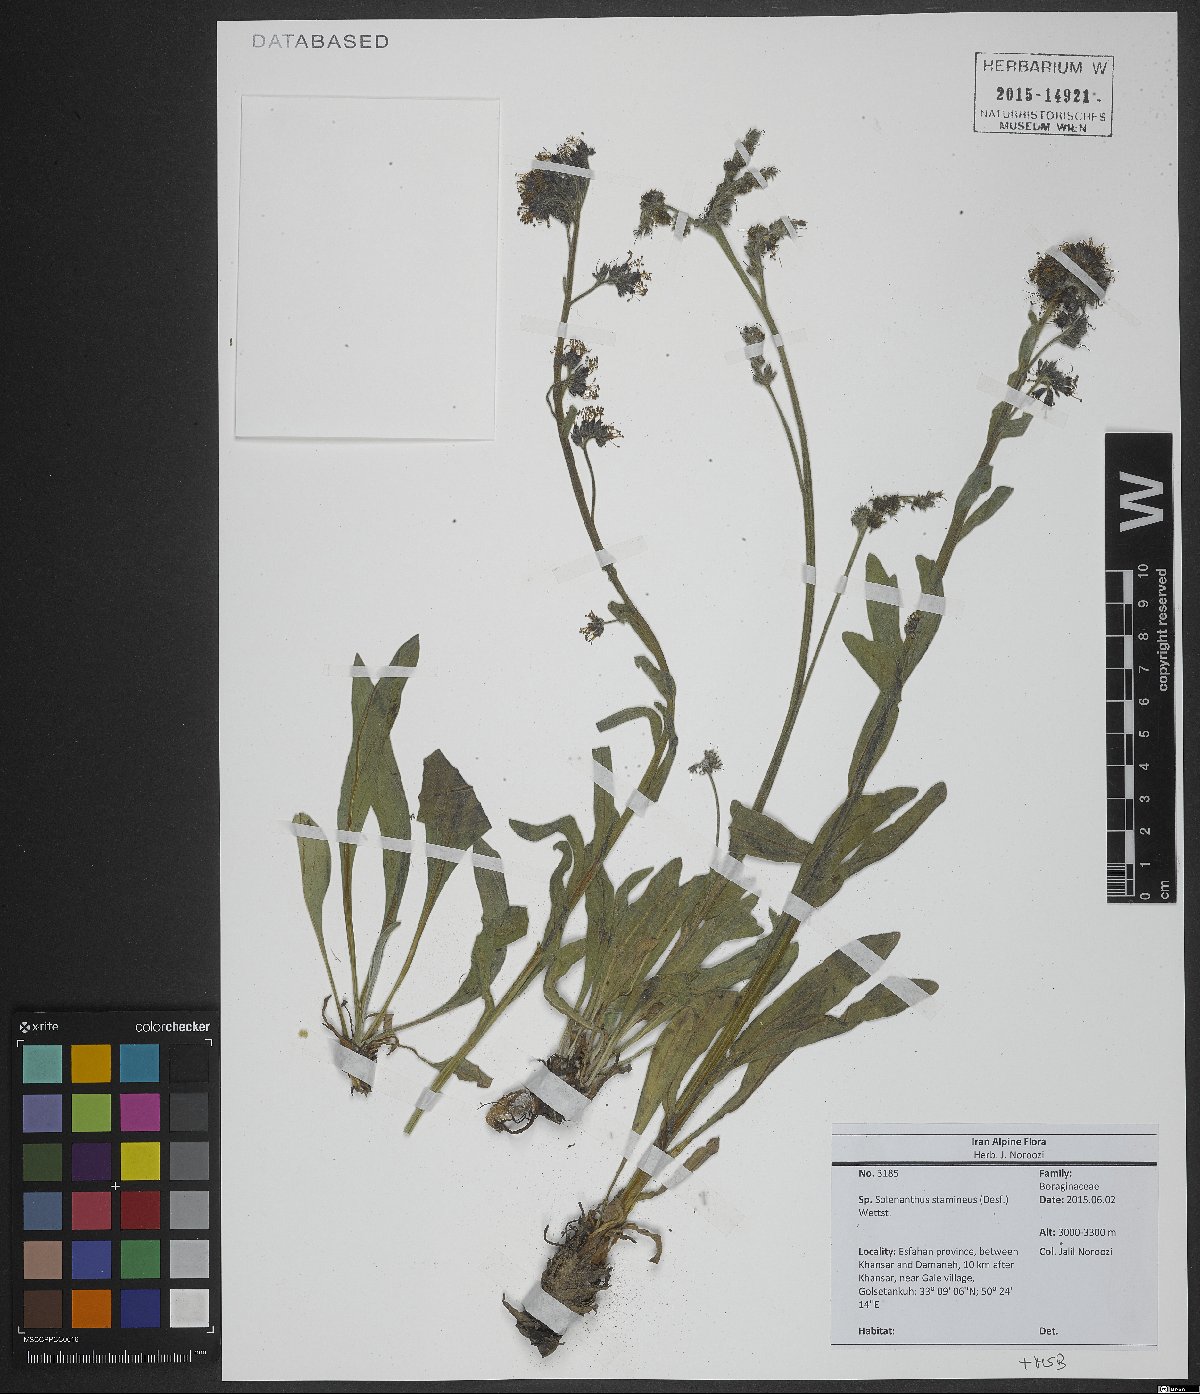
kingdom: Plantae
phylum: Tracheophyta
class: Magnoliopsida
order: Boraginales
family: Boraginaceae
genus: Solenanthus
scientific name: Solenanthus stamineus
